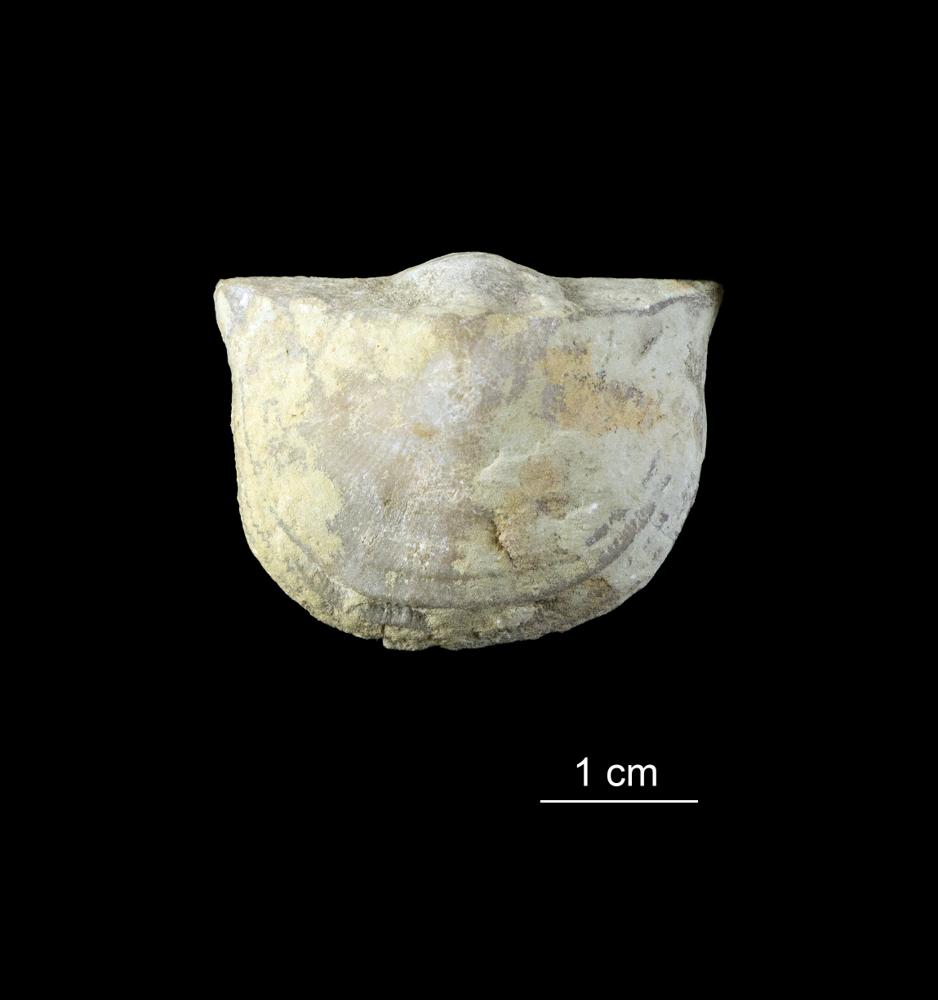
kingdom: Animalia
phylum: Brachiopoda
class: Rhynchonellata
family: Clitambonitidae
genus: Clinambon
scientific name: Clinambon anomalus
